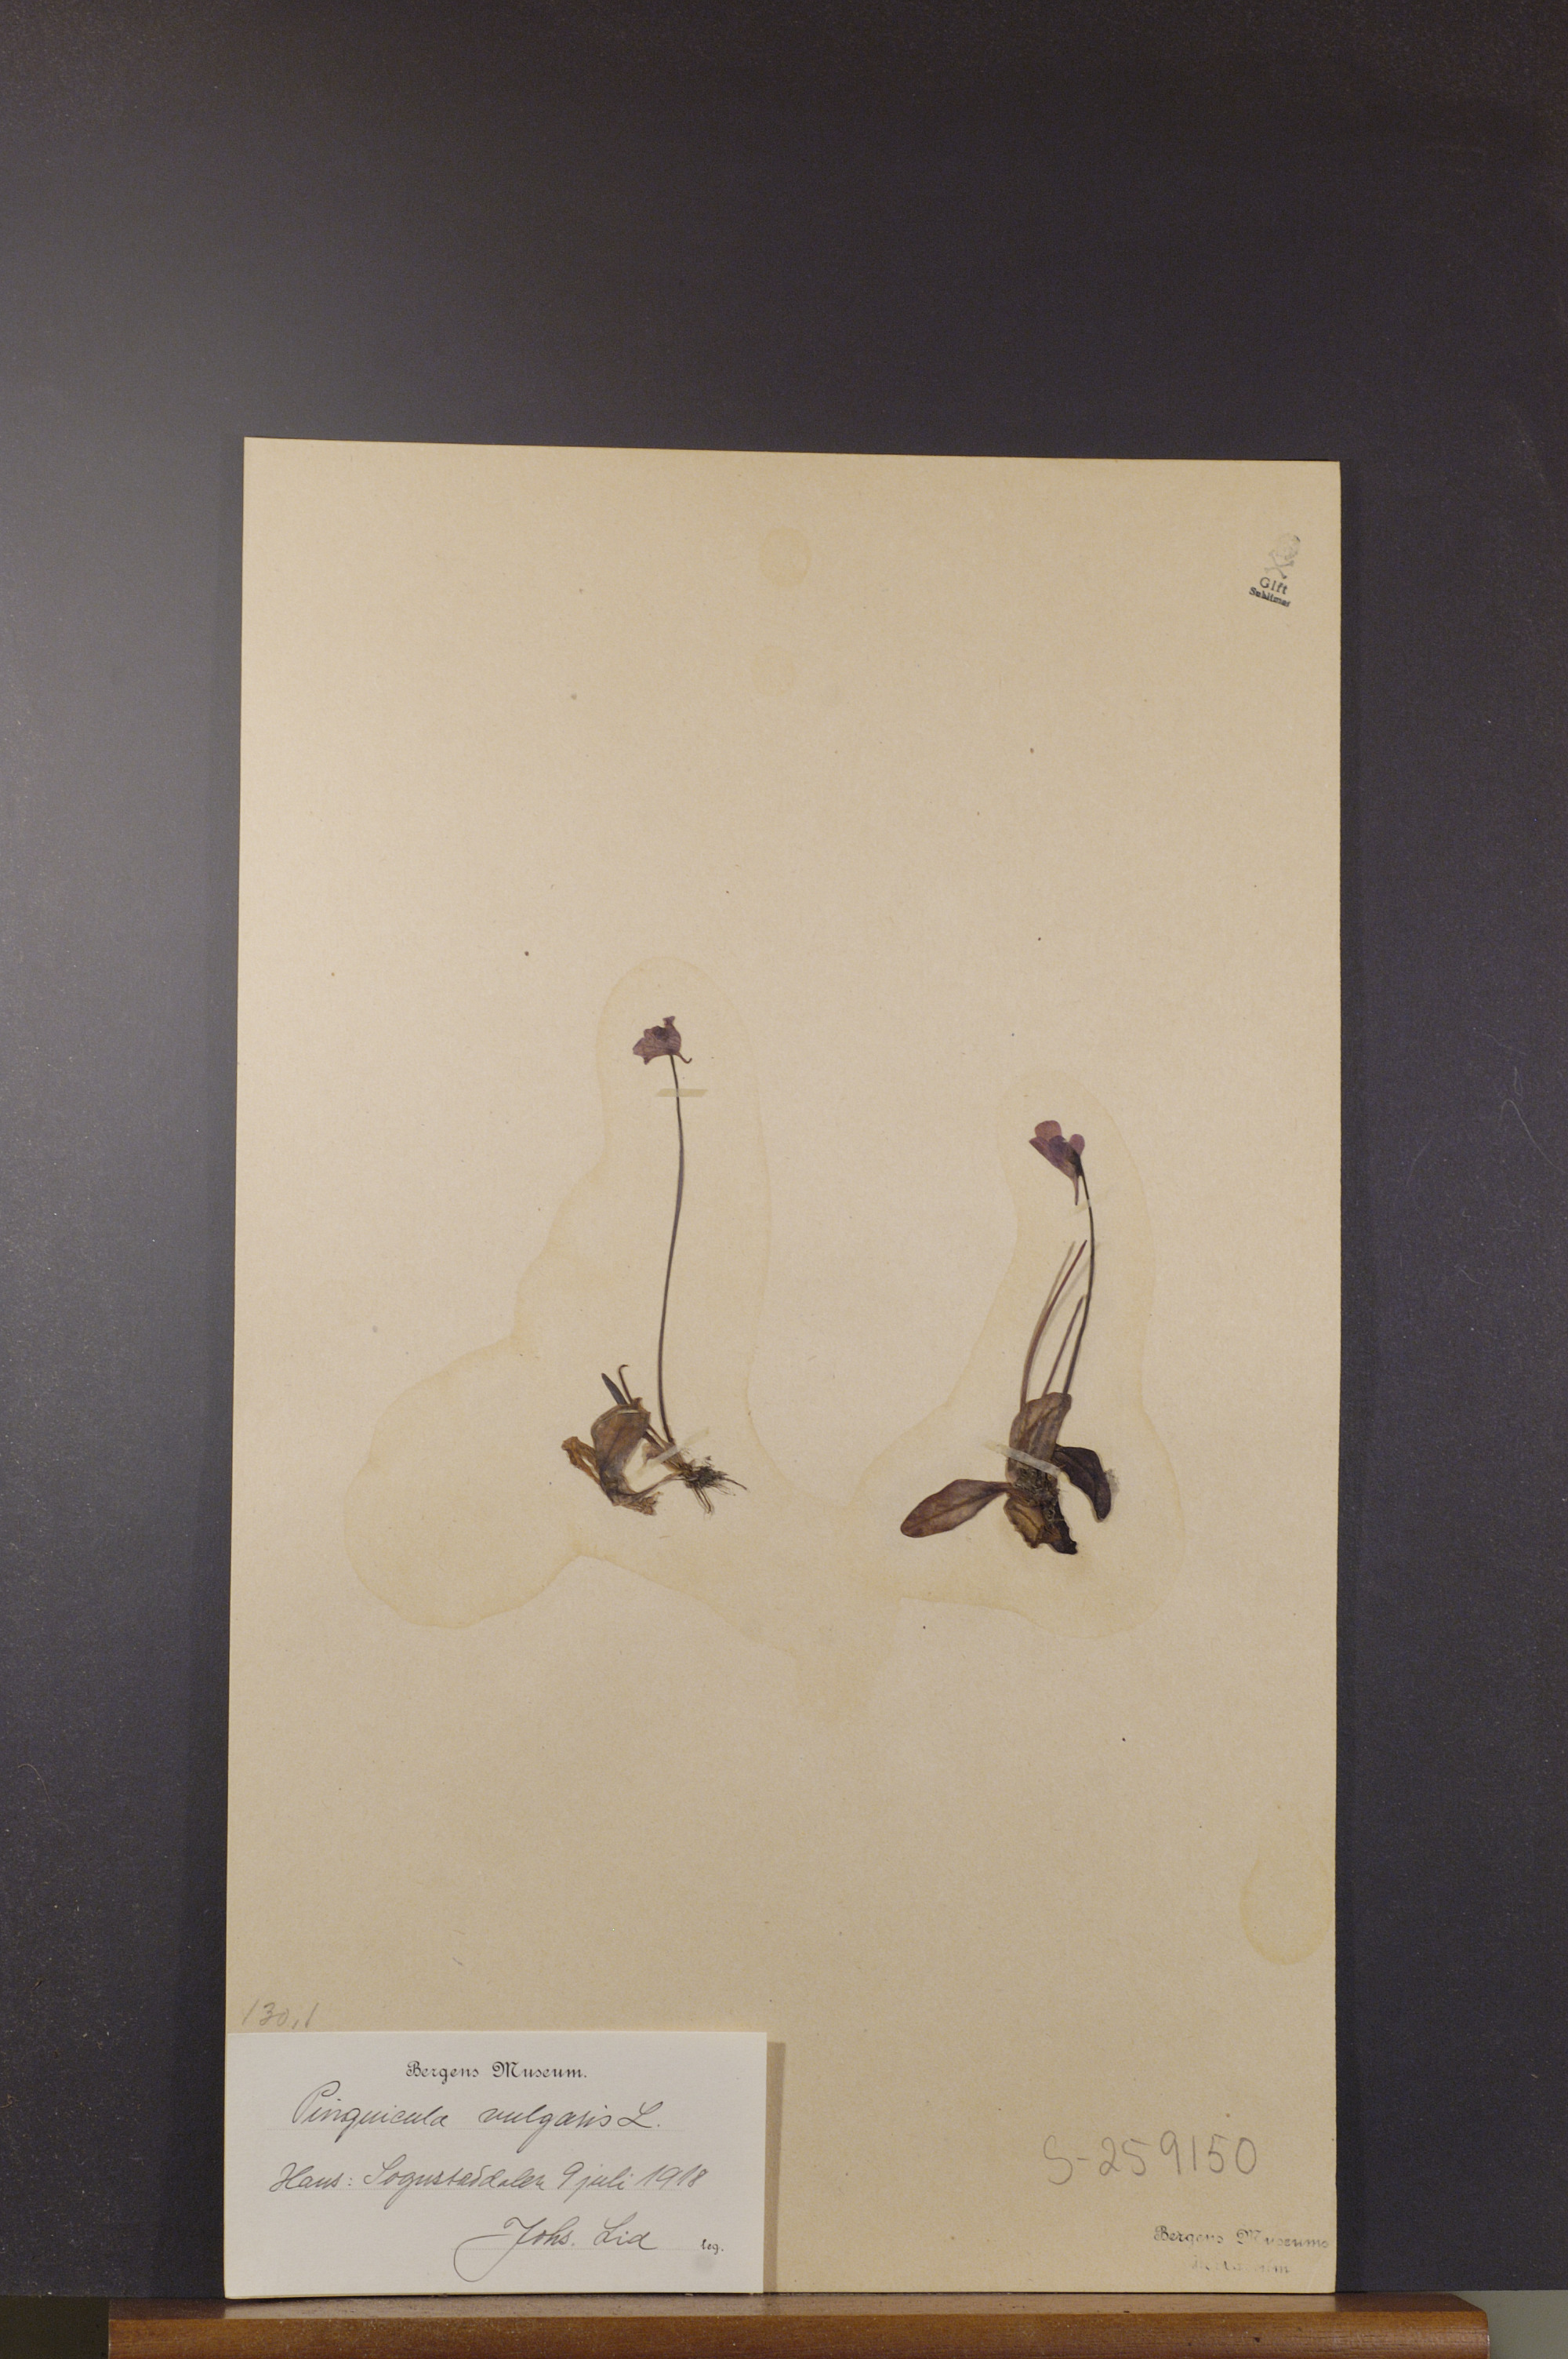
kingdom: Plantae
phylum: Tracheophyta
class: Magnoliopsida
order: Lamiales
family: Lentibulariaceae
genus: Pinguicula
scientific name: Pinguicula vulgaris
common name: Common butterwort
